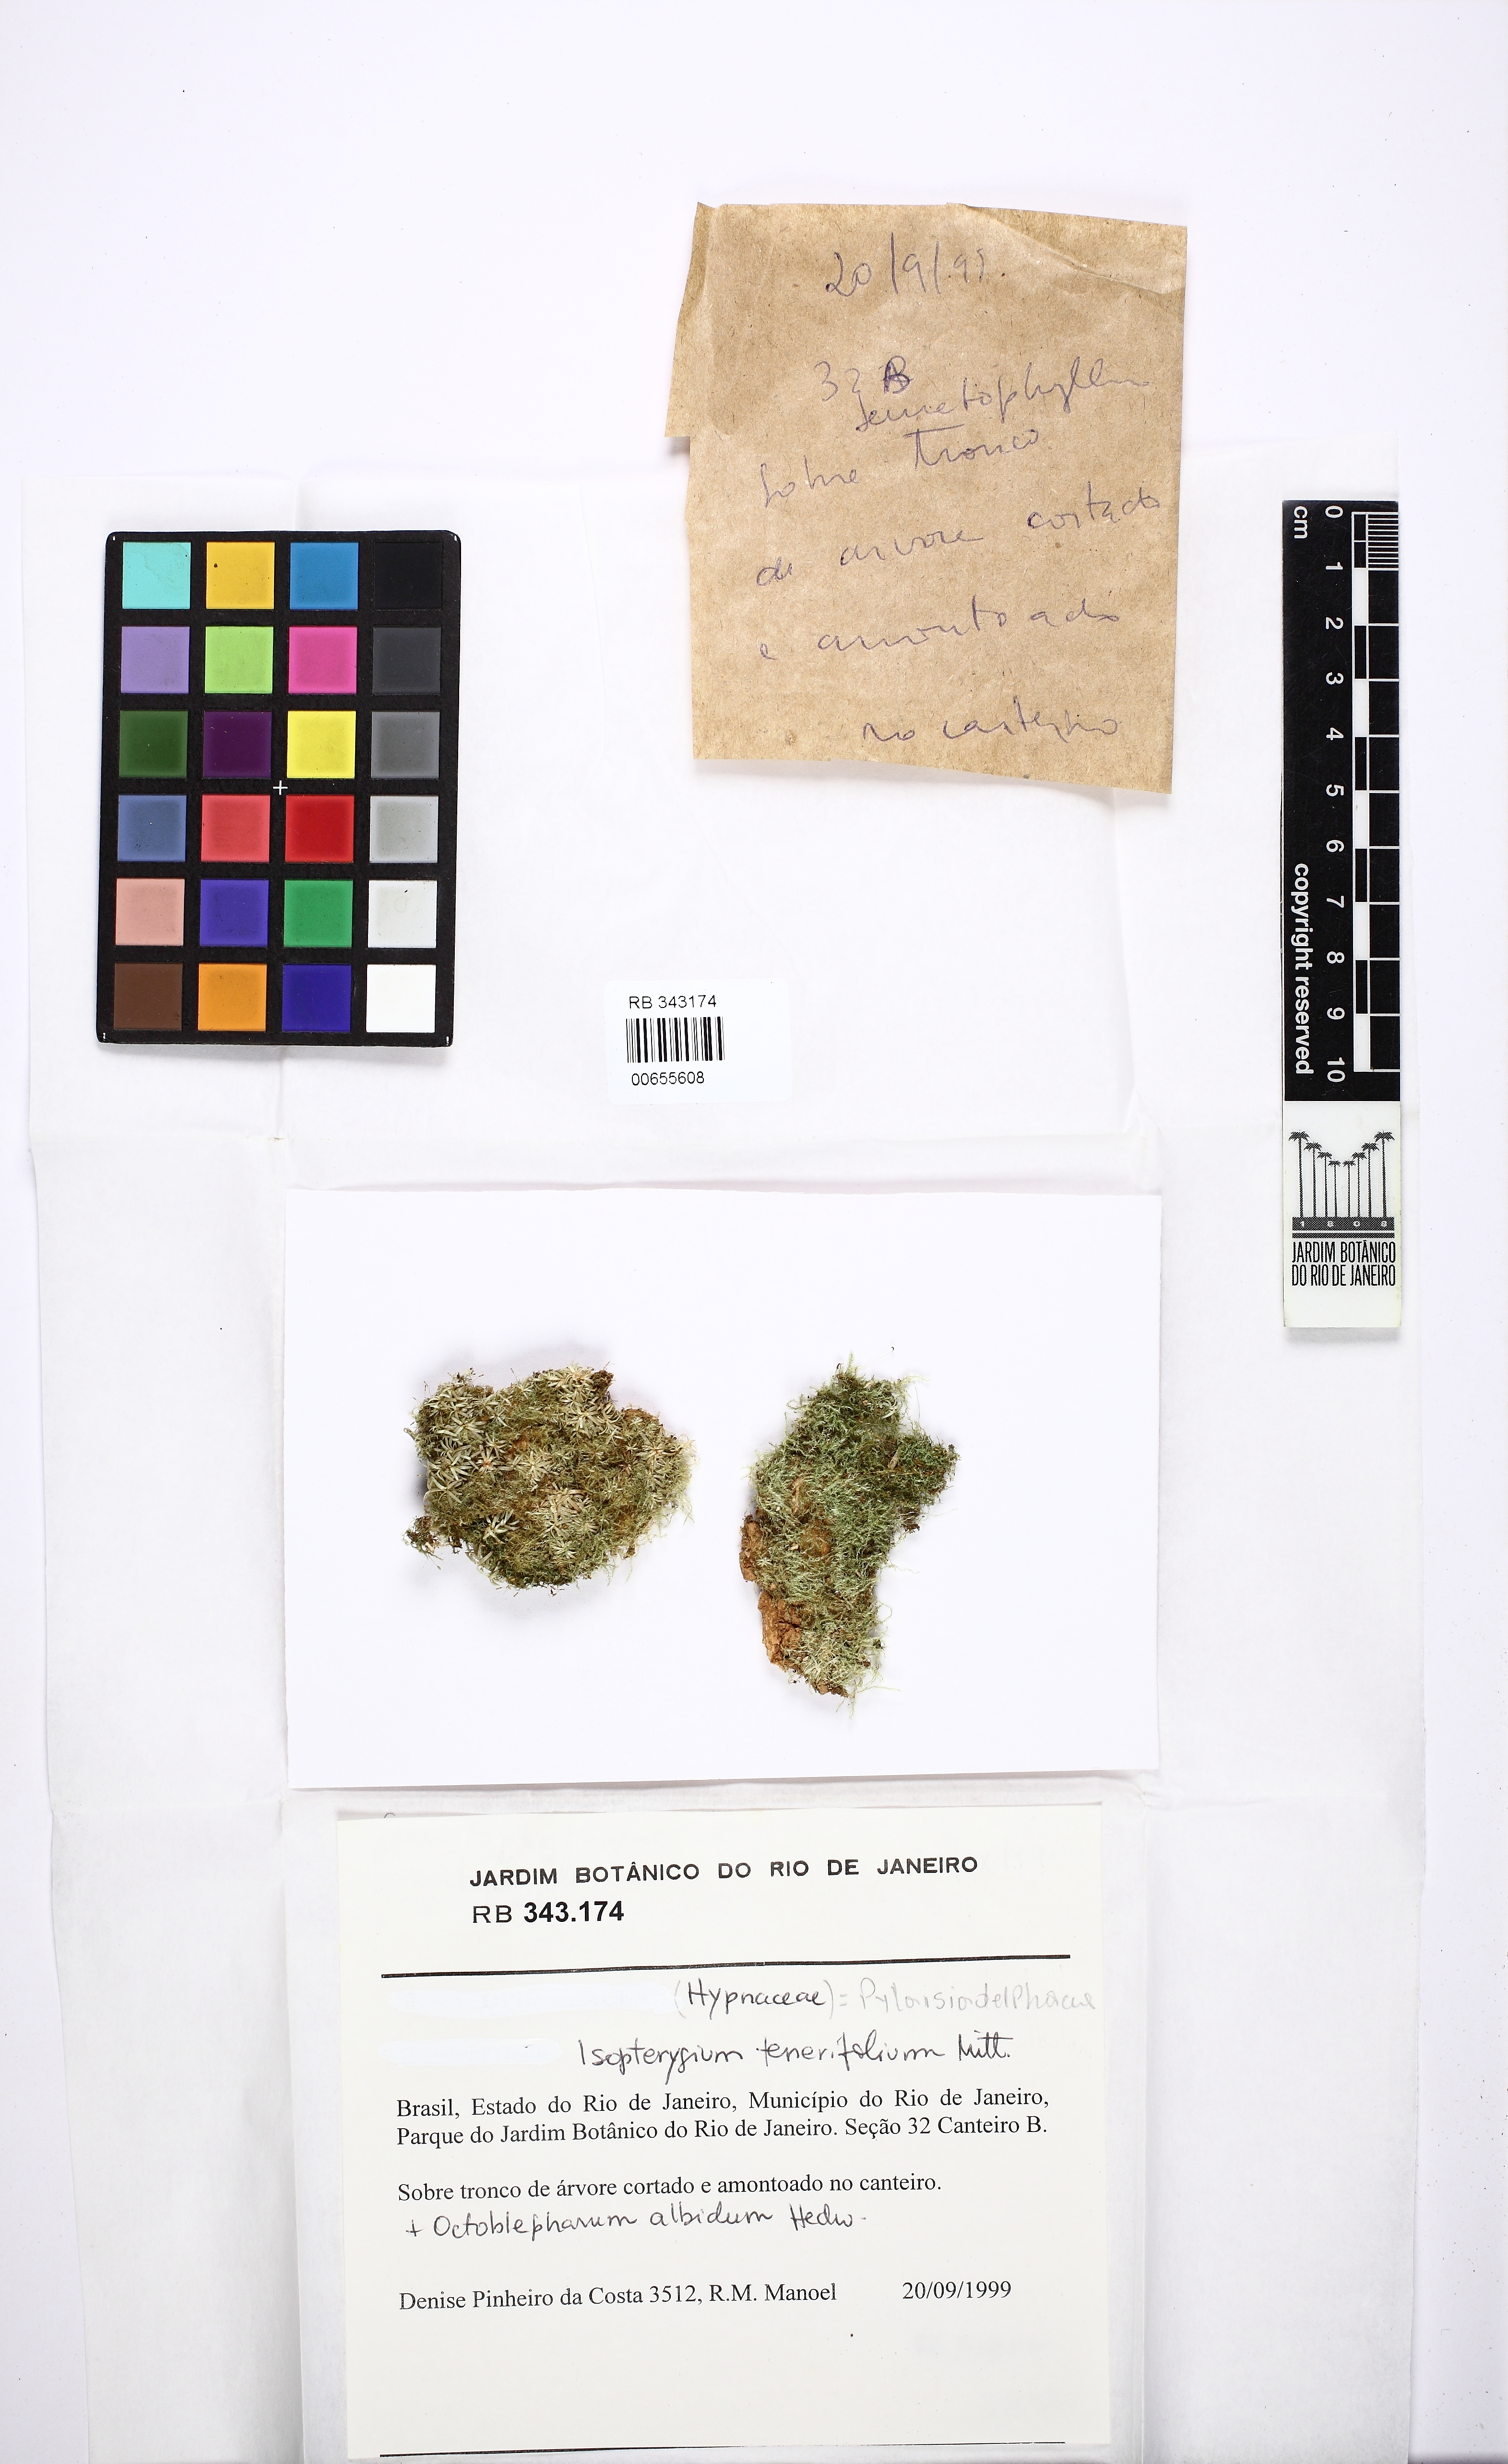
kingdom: Plantae
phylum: Bryophyta
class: Bryopsida
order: Hypnales
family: Pylaisiadelphaceae
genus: Isopterygium
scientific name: Isopterygium tenerifolium
